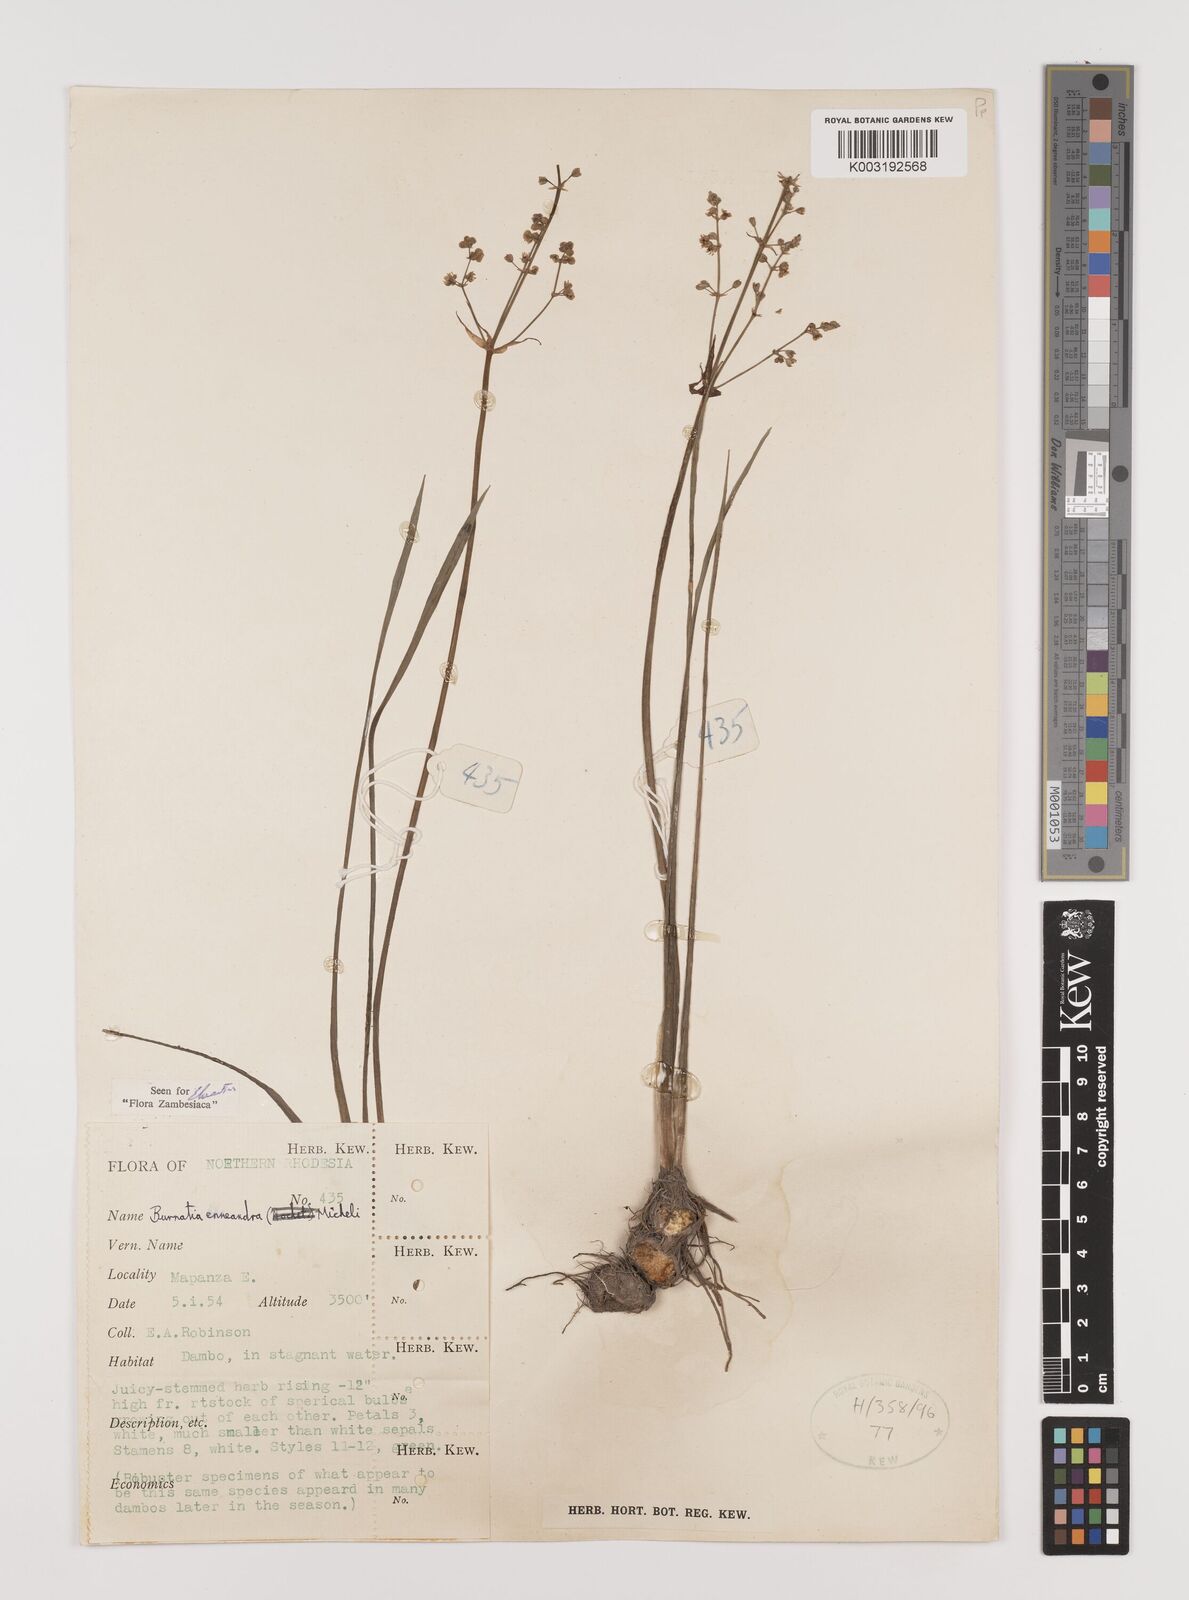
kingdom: Plantae
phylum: Tracheophyta
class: Liliopsida
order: Alismatales
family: Alismataceae
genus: Burnatia
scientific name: Burnatia enneandra
